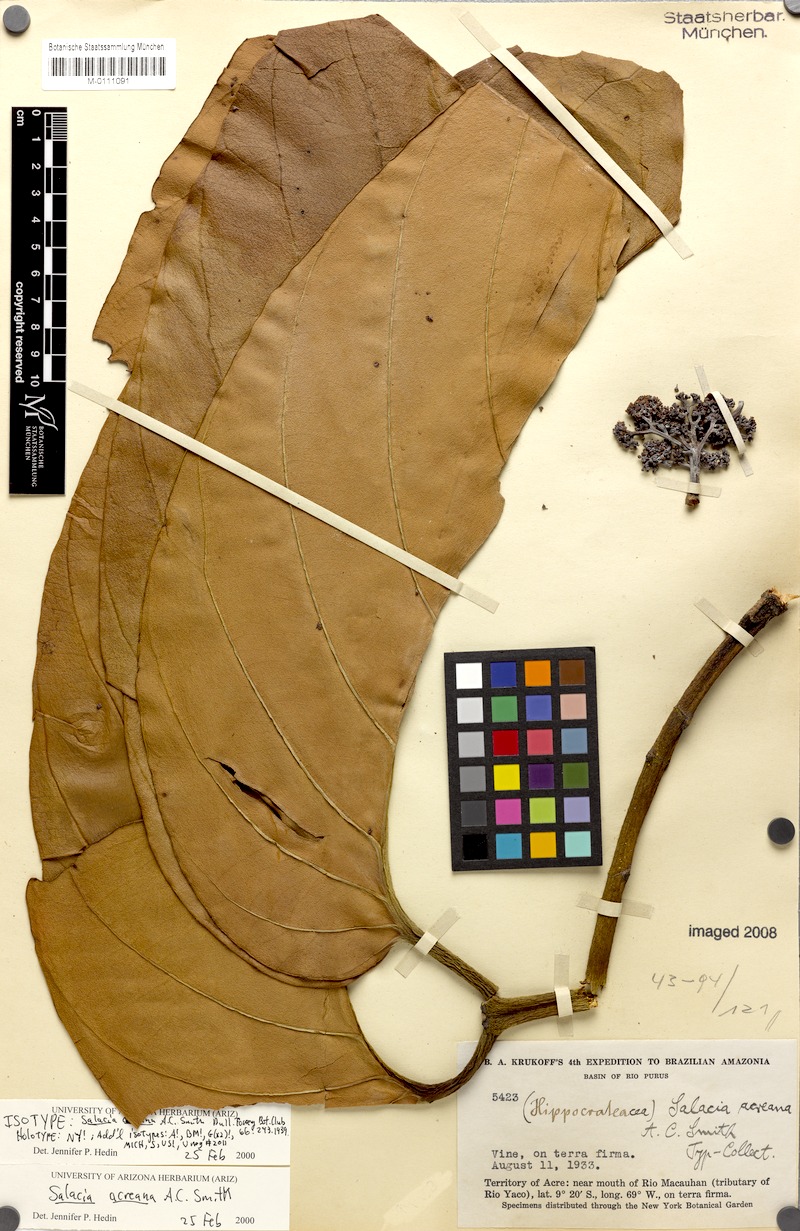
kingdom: Plantae
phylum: Tracheophyta
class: Magnoliopsida
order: Celastrales
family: Celastraceae
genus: Salacia
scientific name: Salacia cordata
